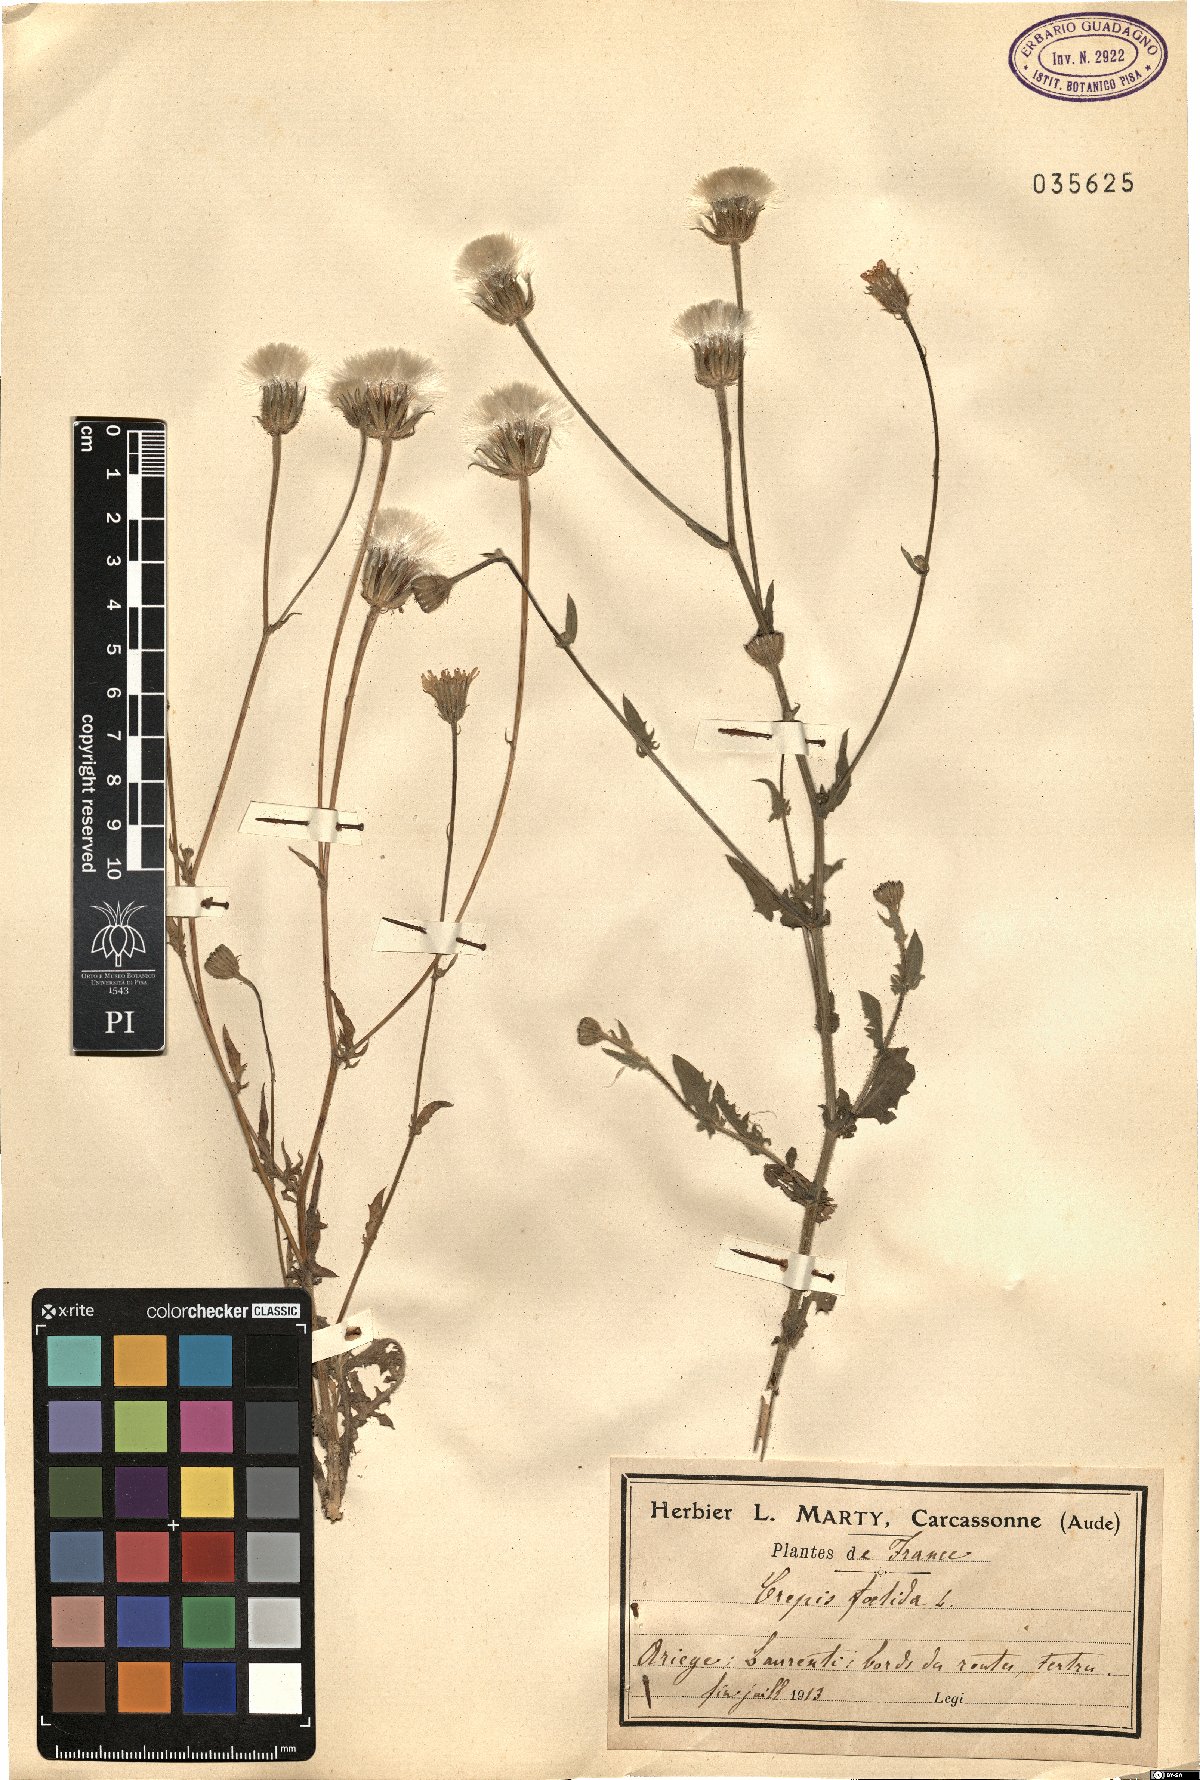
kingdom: Plantae
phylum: Tracheophyta
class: Magnoliopsida
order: Asterales
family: Asteraceae
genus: Crepis
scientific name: Crepis foetida
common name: Stinking hawk's-beard
